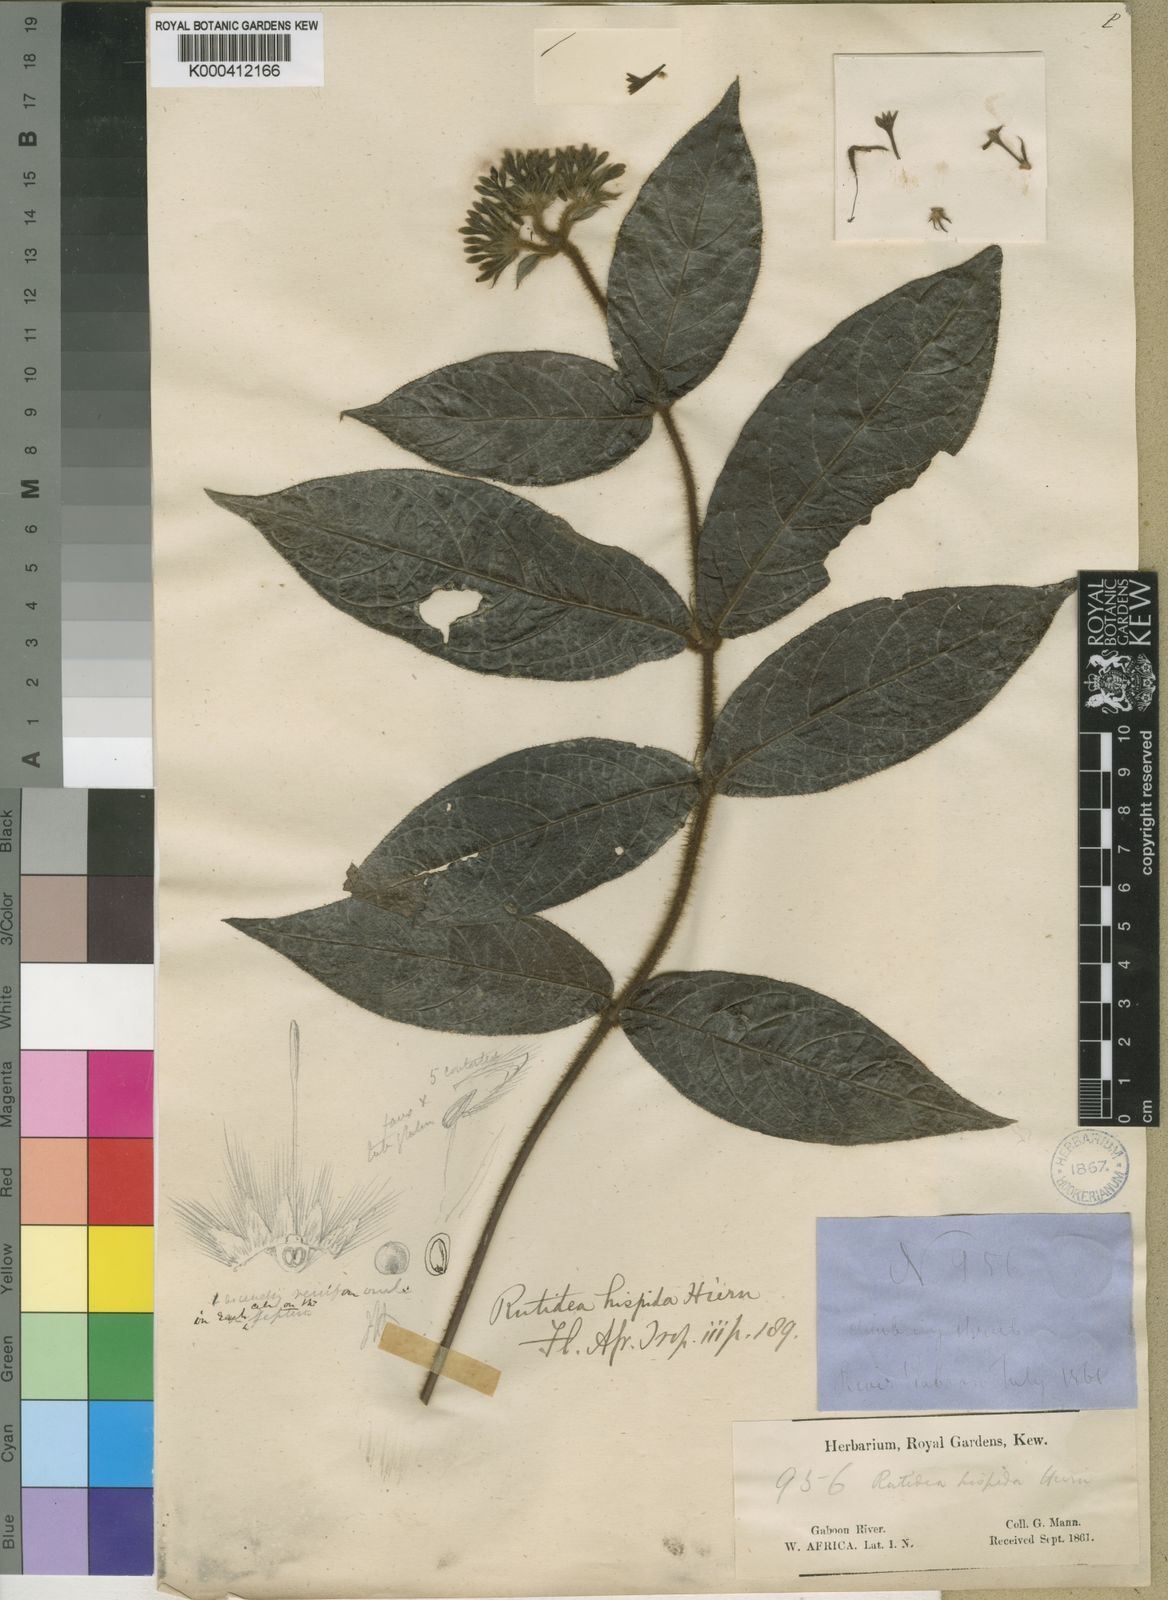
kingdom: Plantae
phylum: Tracheophyta
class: Magnoliopsida
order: Gentianales
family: Rubiaceae
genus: Rutidea
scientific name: Rutidea hispida
